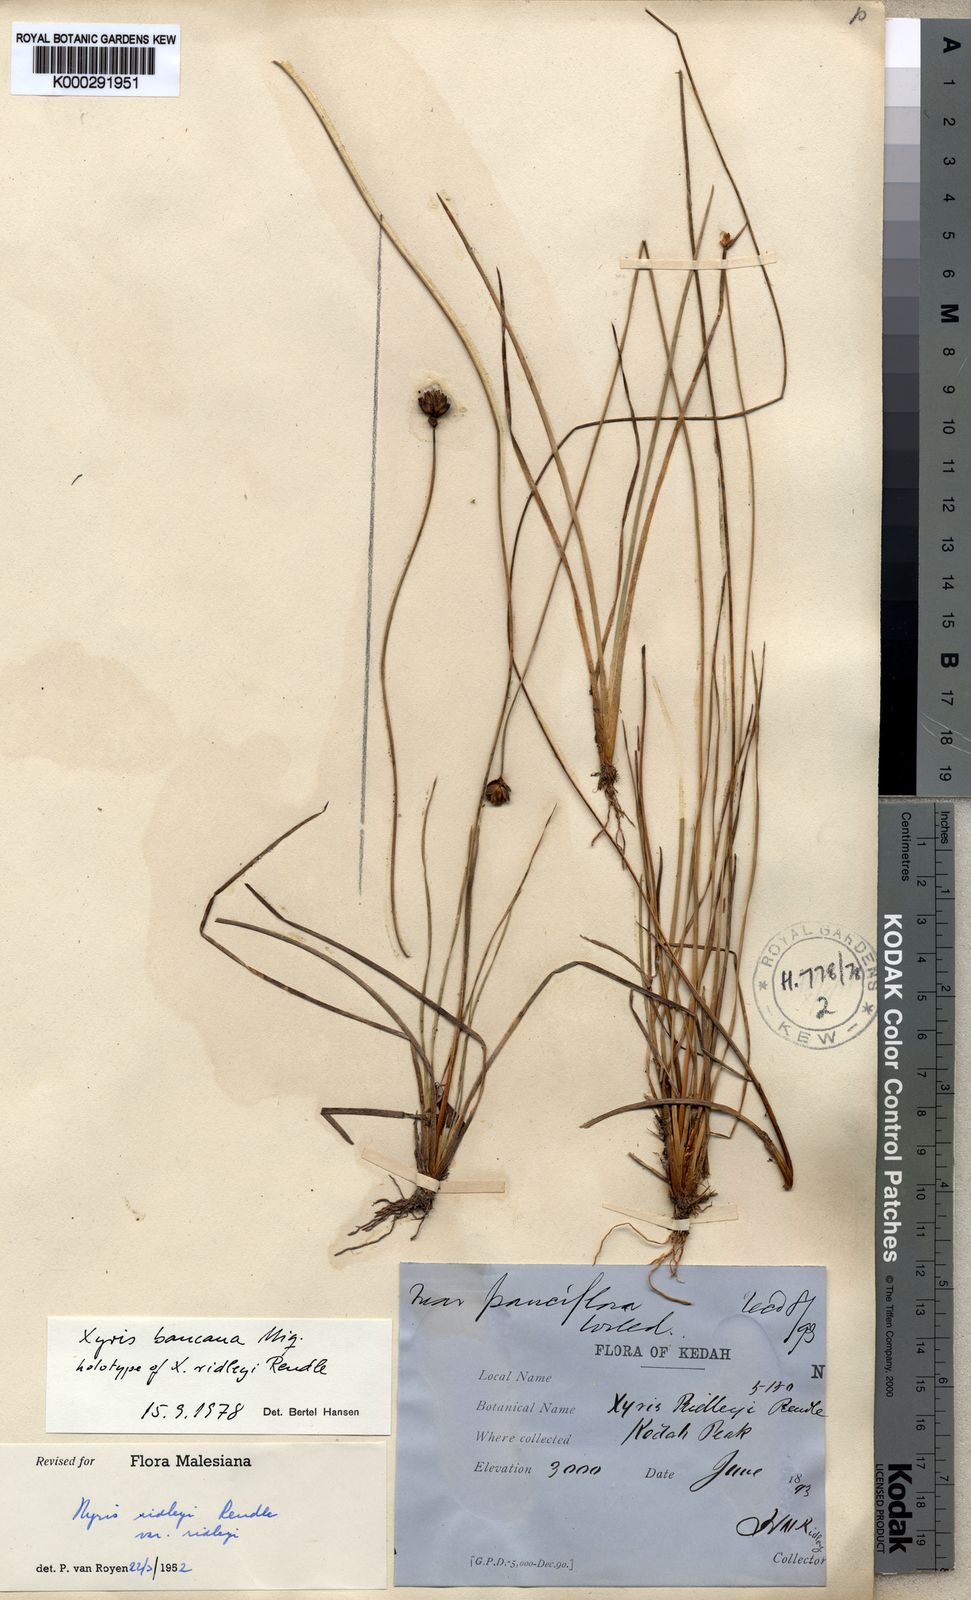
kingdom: Plantae
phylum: Tracheophyta
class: Liliopsida
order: Poales
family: Xyridaceae
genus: Xyris
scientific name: Xyris bancana
